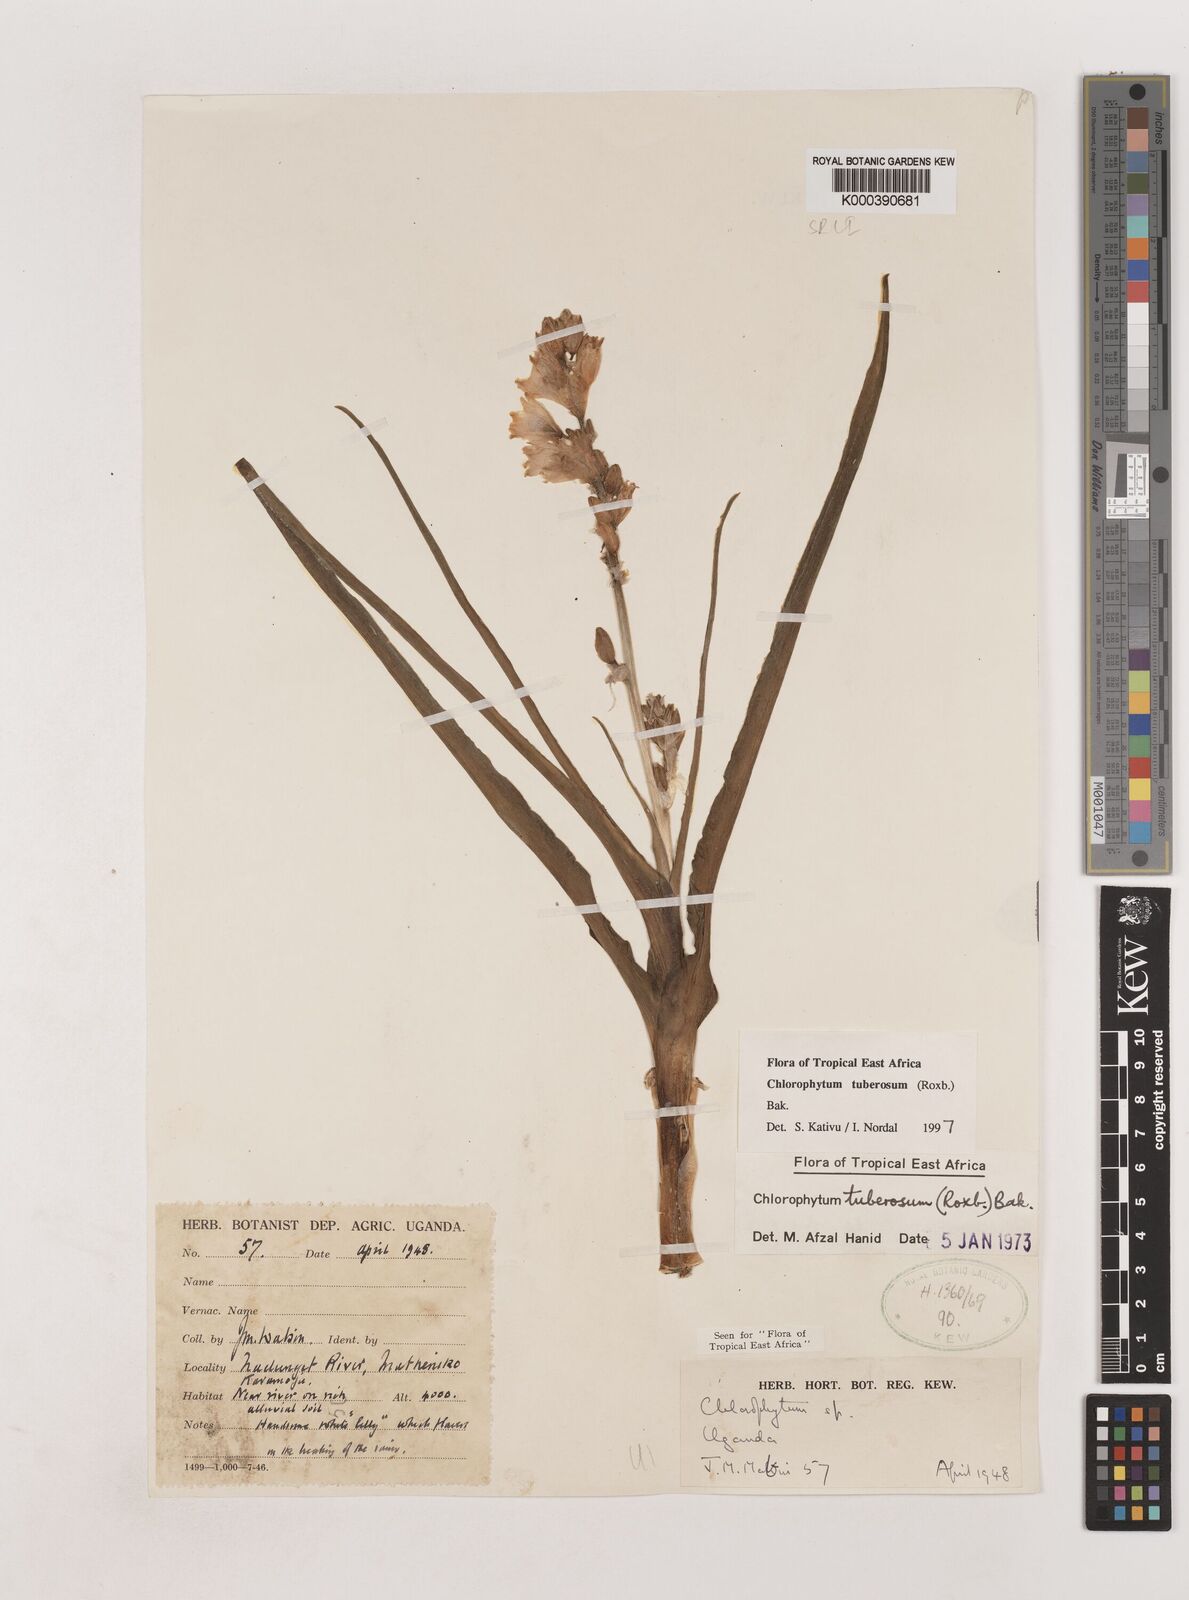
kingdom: Plantae
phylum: Tracheophyta
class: Liliopsida
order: Asparagales
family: Asparagaceae
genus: Chlorophytum
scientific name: Chlorophytum tuberosum
